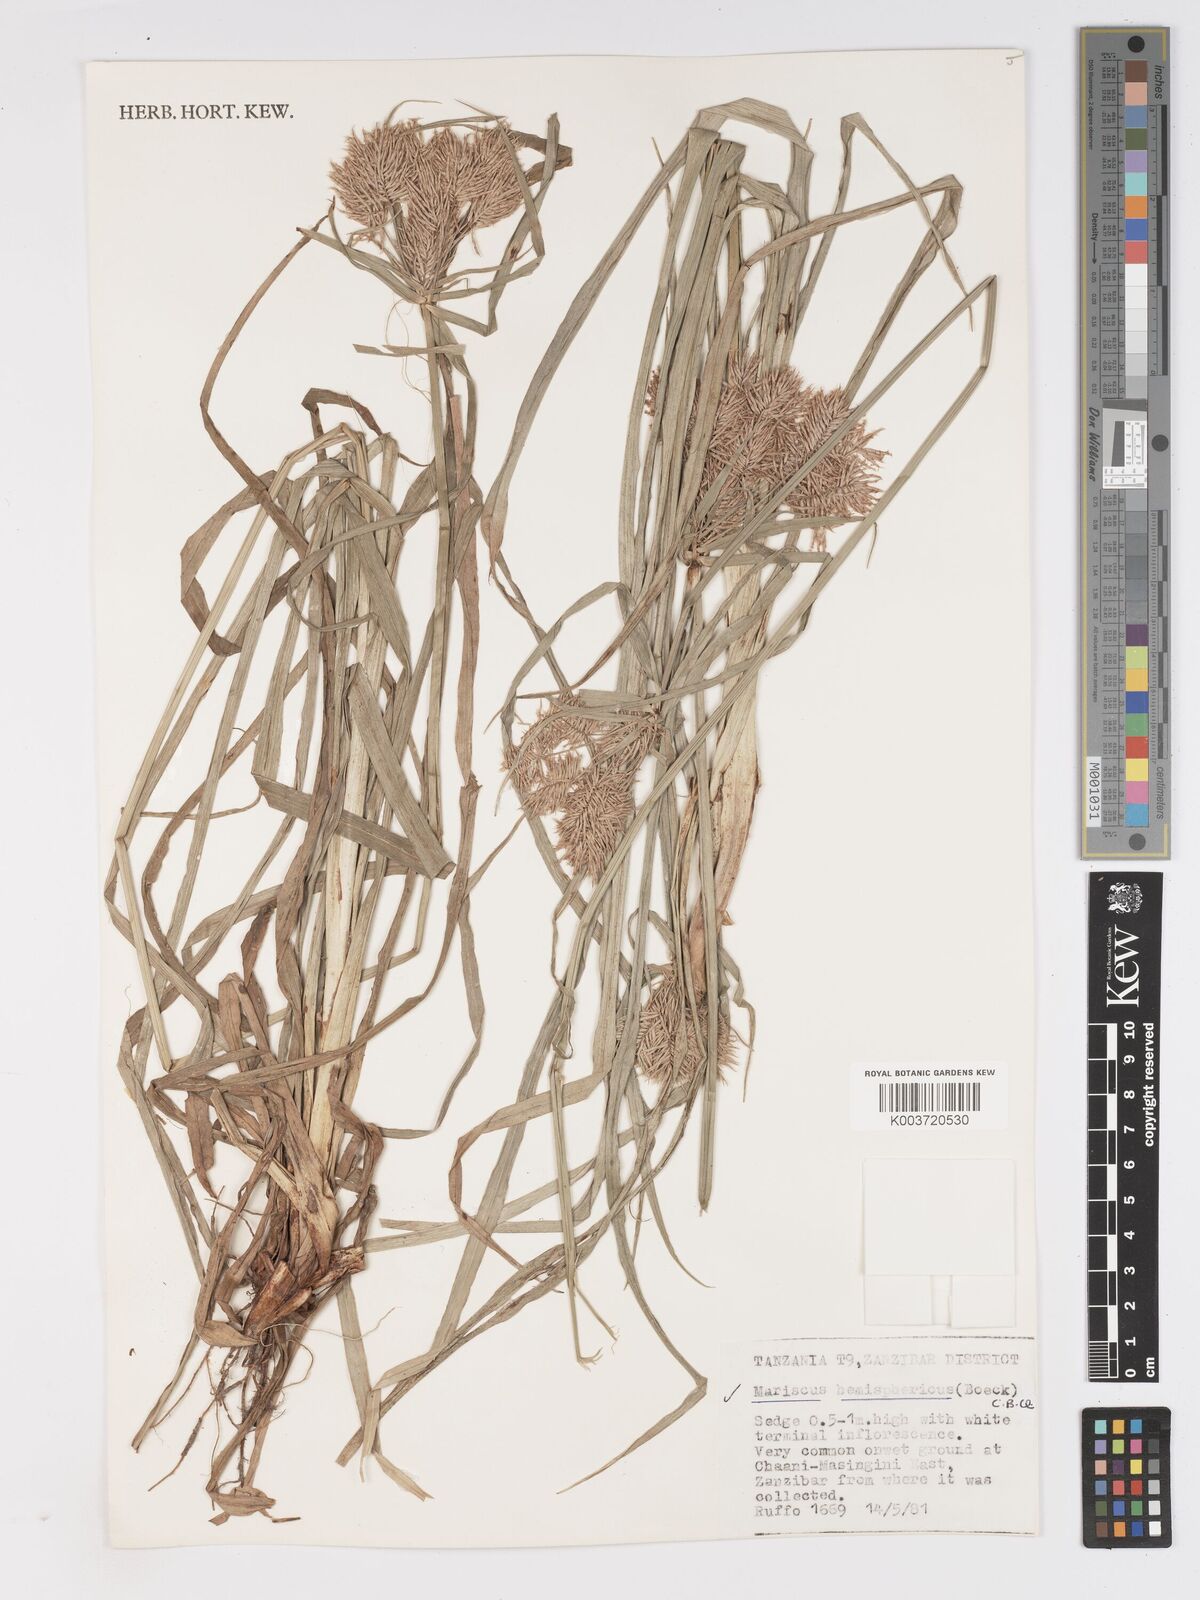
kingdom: Plantae
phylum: Tracheophyta
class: Liliopsida
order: Poales
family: Cyperaceae
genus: Cyperus
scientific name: Cyperus hemisphaericus
